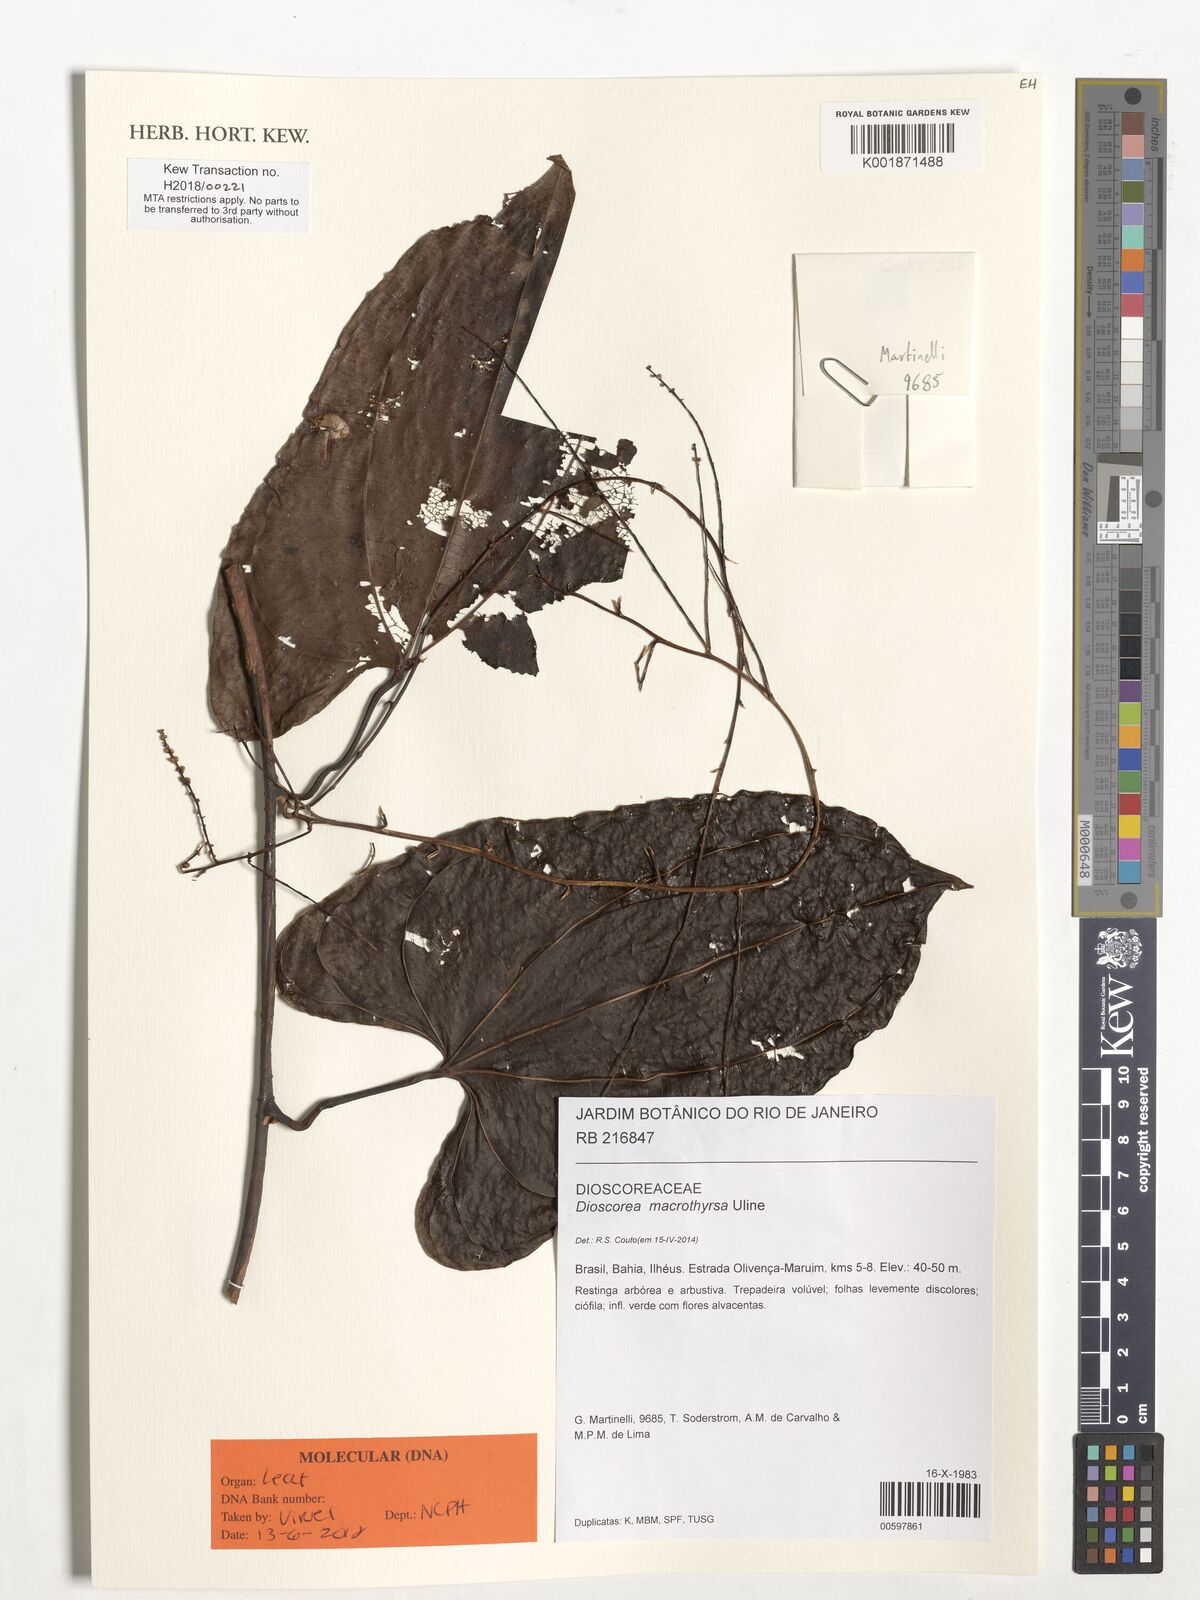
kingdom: Plantae
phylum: Tracheophyta
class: Liliopsida
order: Dioscoreales
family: Dioscoreaceae
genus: Dioscorea
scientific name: Dioscorea macrothyrsa
